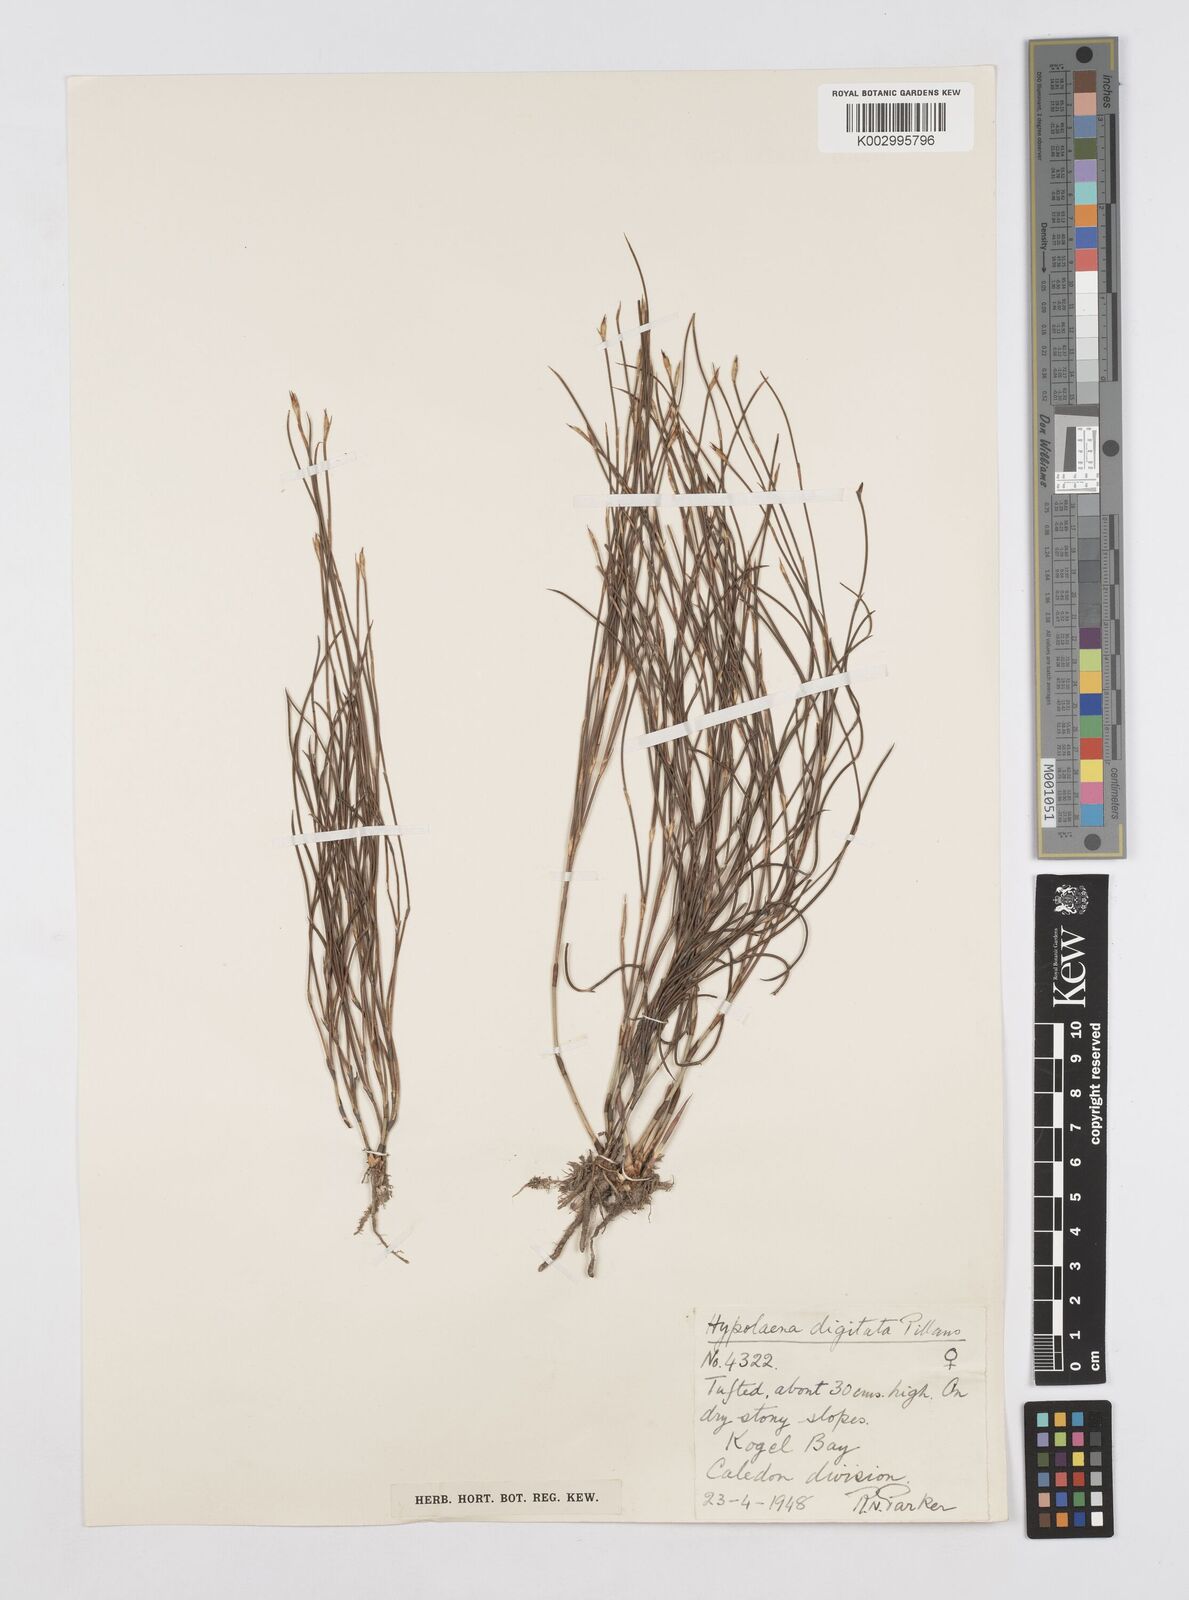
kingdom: Plantae
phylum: Tracheophyta
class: Liliopsida
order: Poales
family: Restionaceae
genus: Mastersiella
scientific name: Mastersiella digitata
